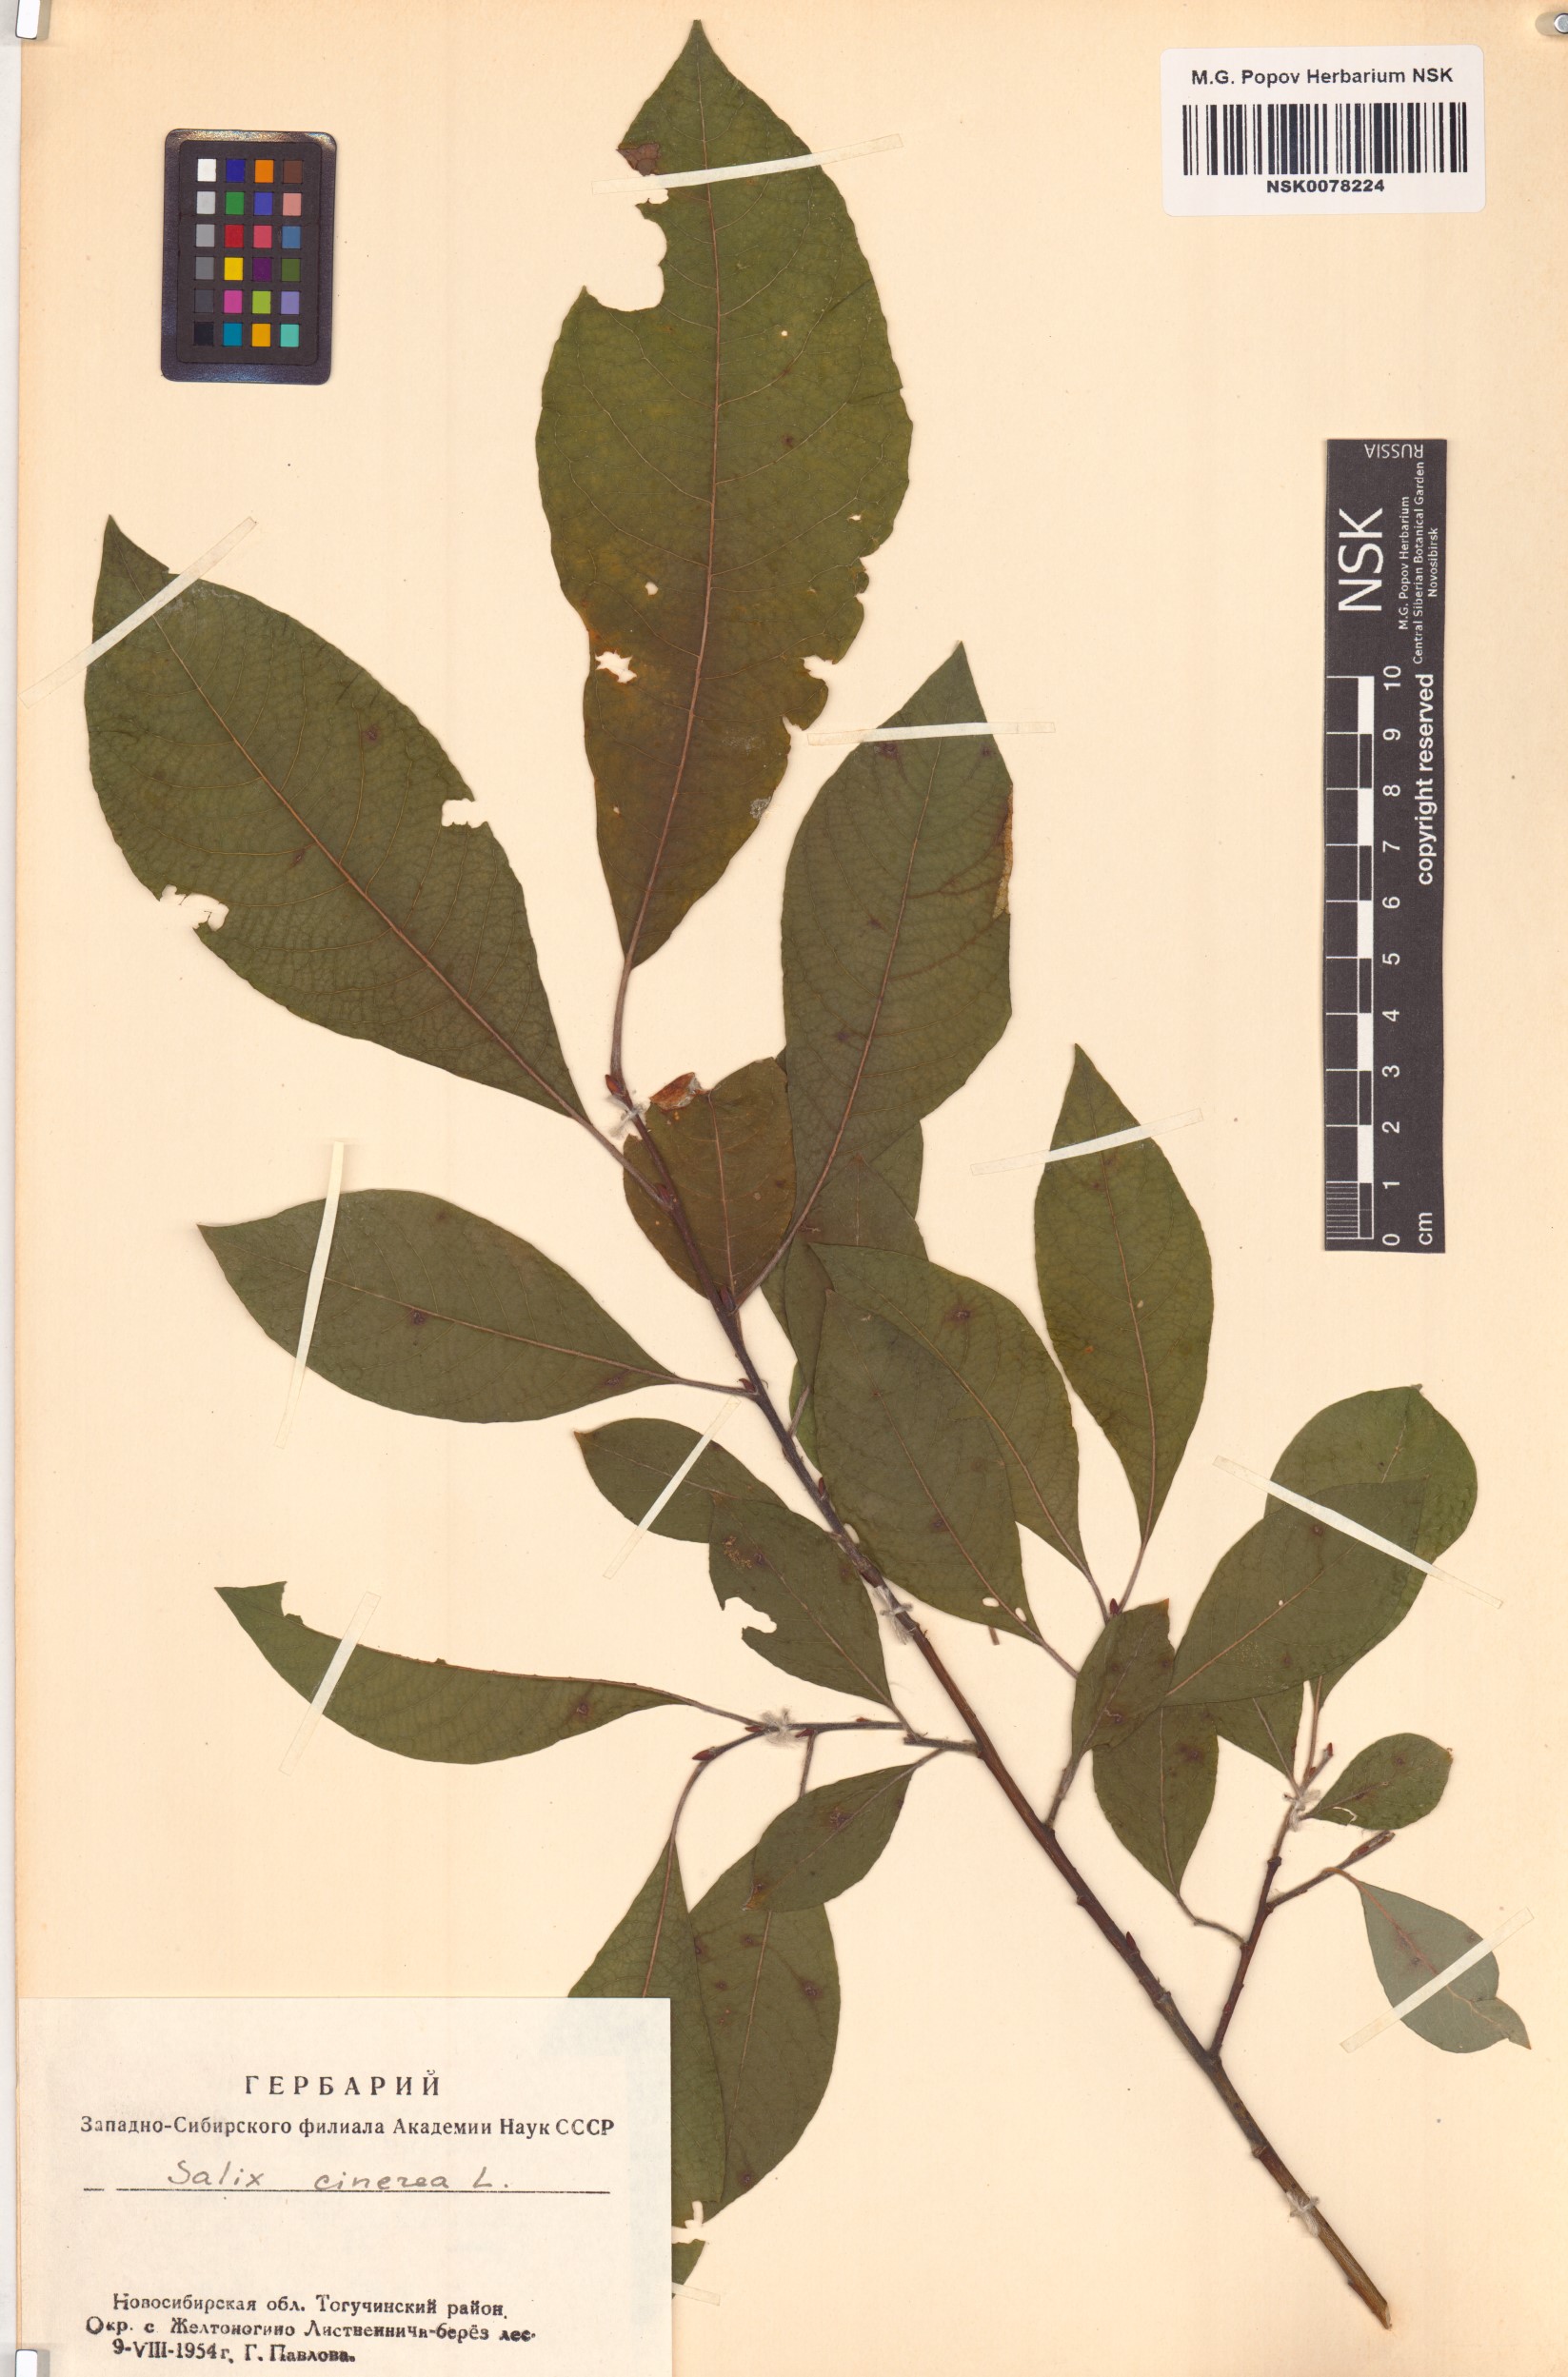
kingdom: Plantae
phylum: Tracheophyta
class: Magnoliopsida
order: Malpighiales
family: Salicaceae
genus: Salix
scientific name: Salix cinerea
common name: Common sallow
